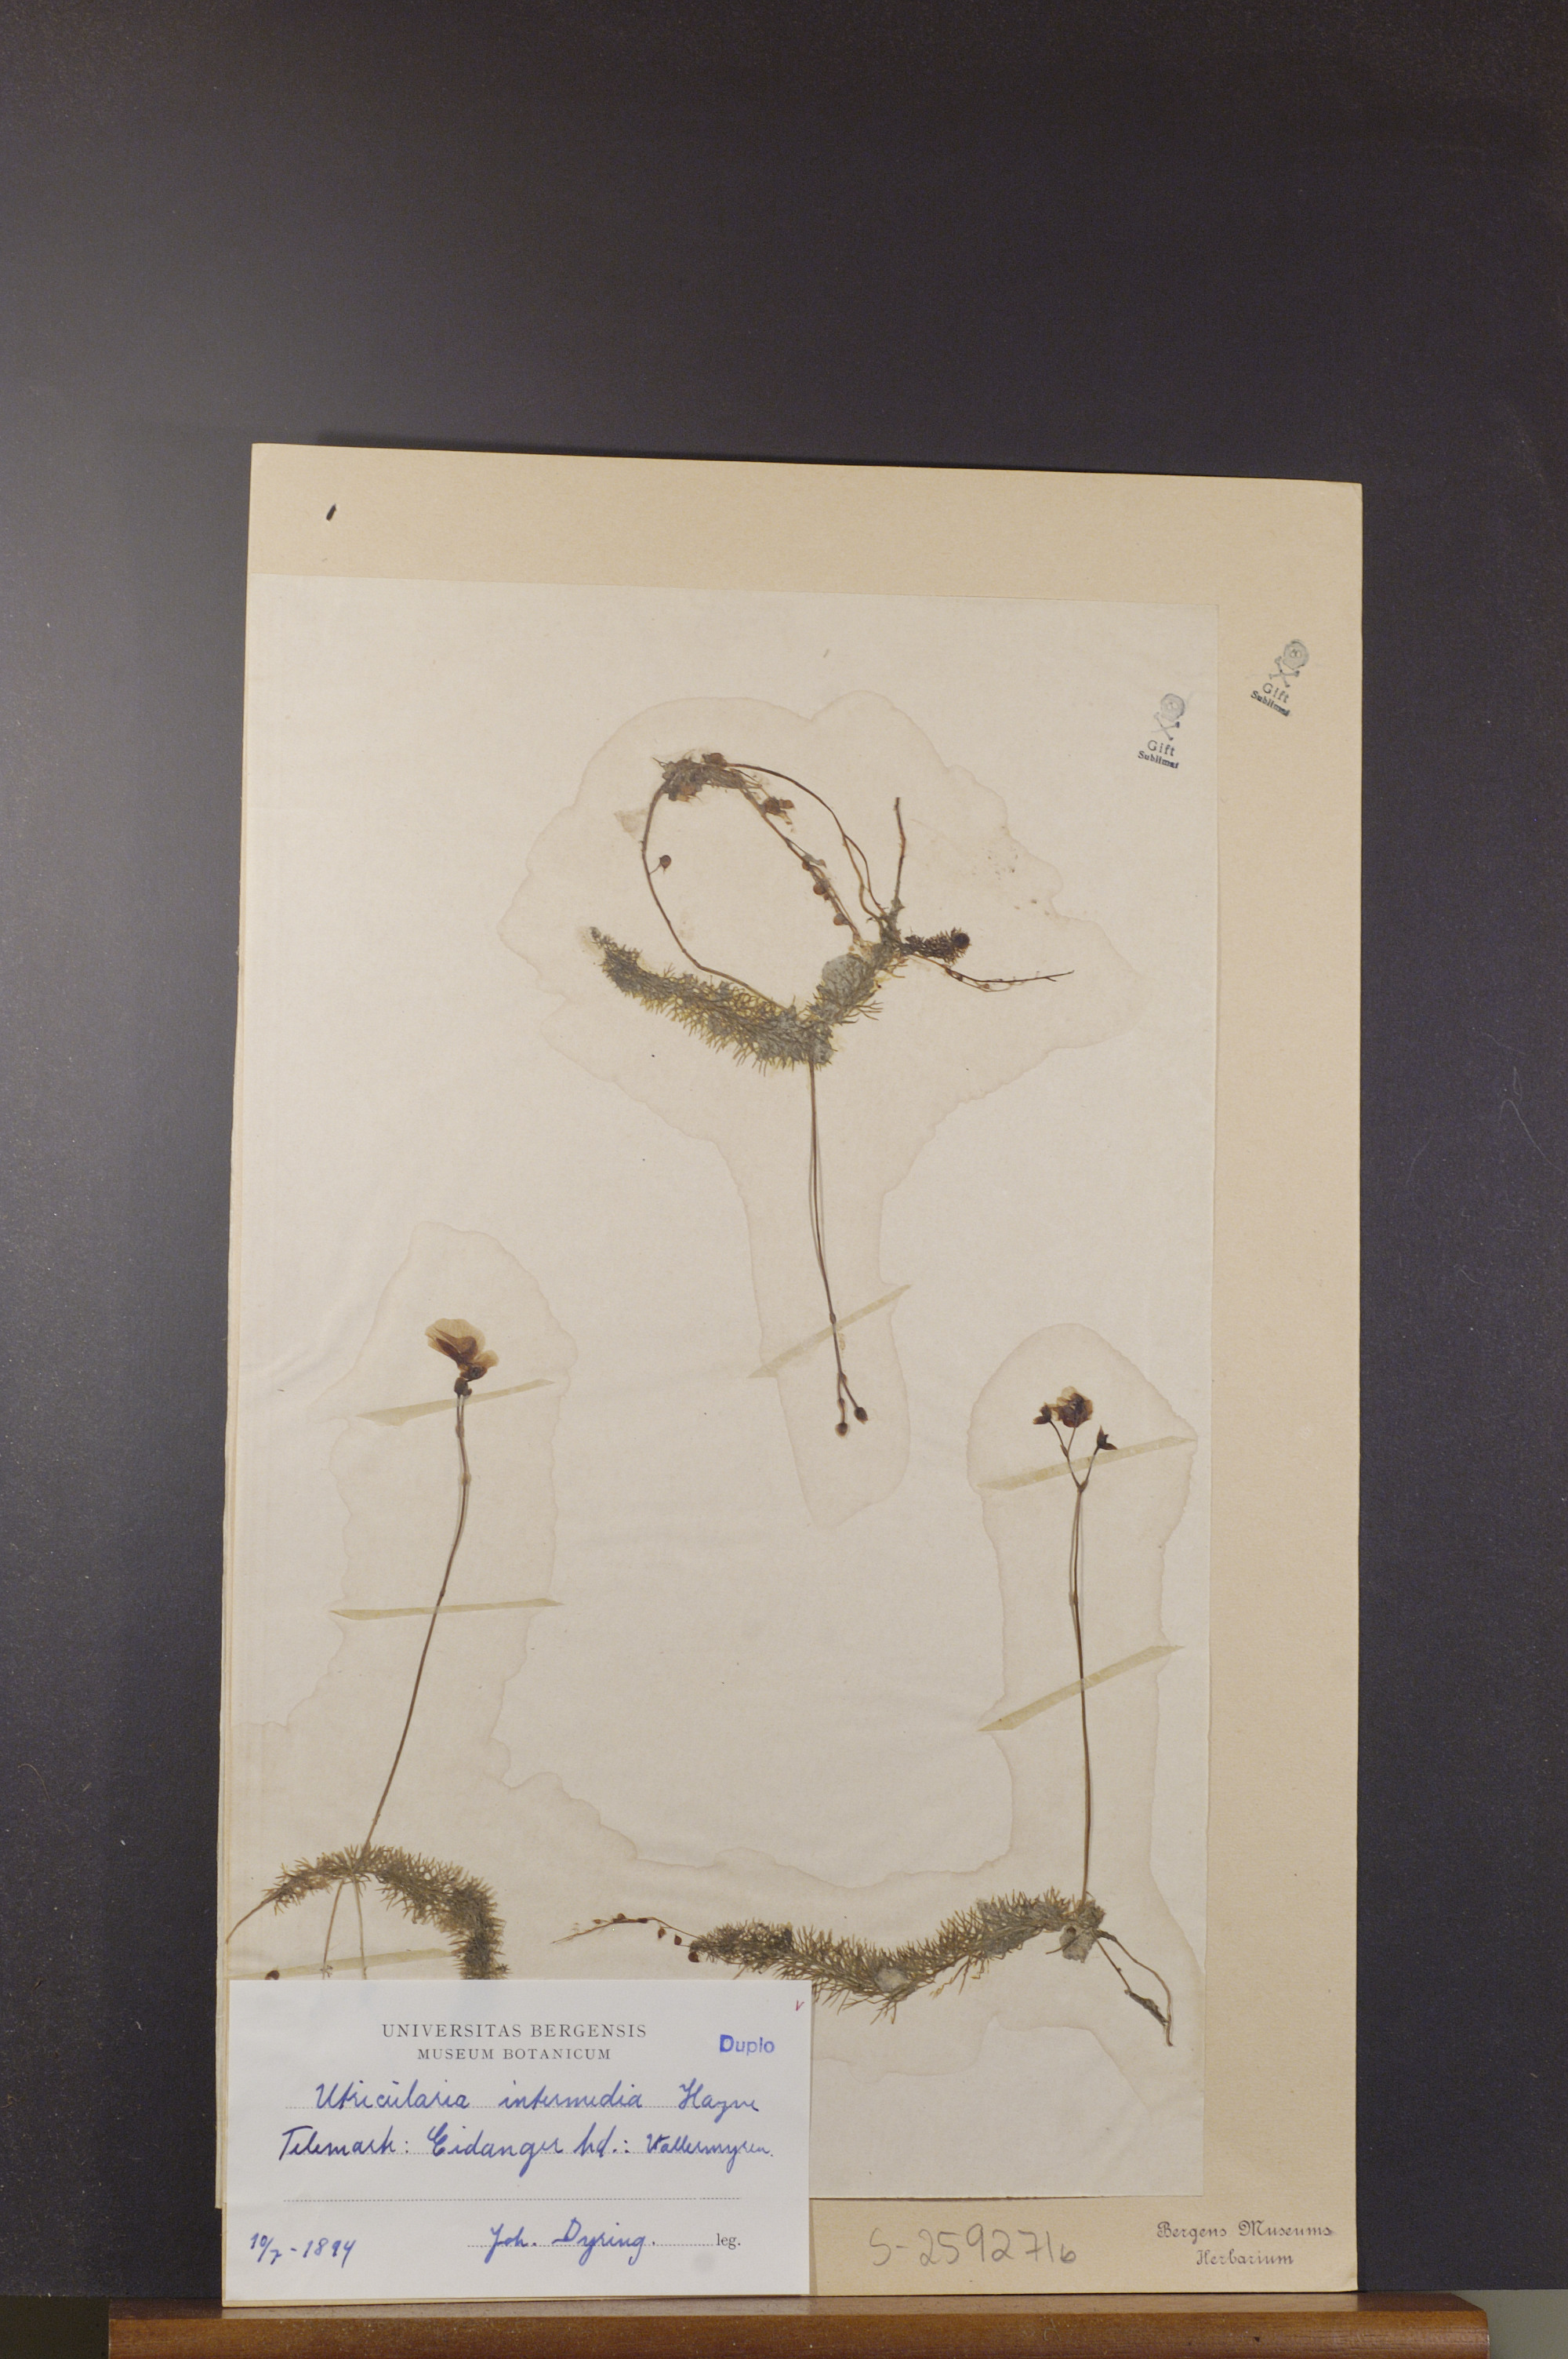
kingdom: Plantae
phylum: Tracheophyta
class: Magnoliopsida
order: Lamiales
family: Lentibulariaceae
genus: Utricularia
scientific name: Utricularia intermedia
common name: Intermediate bladderwort
